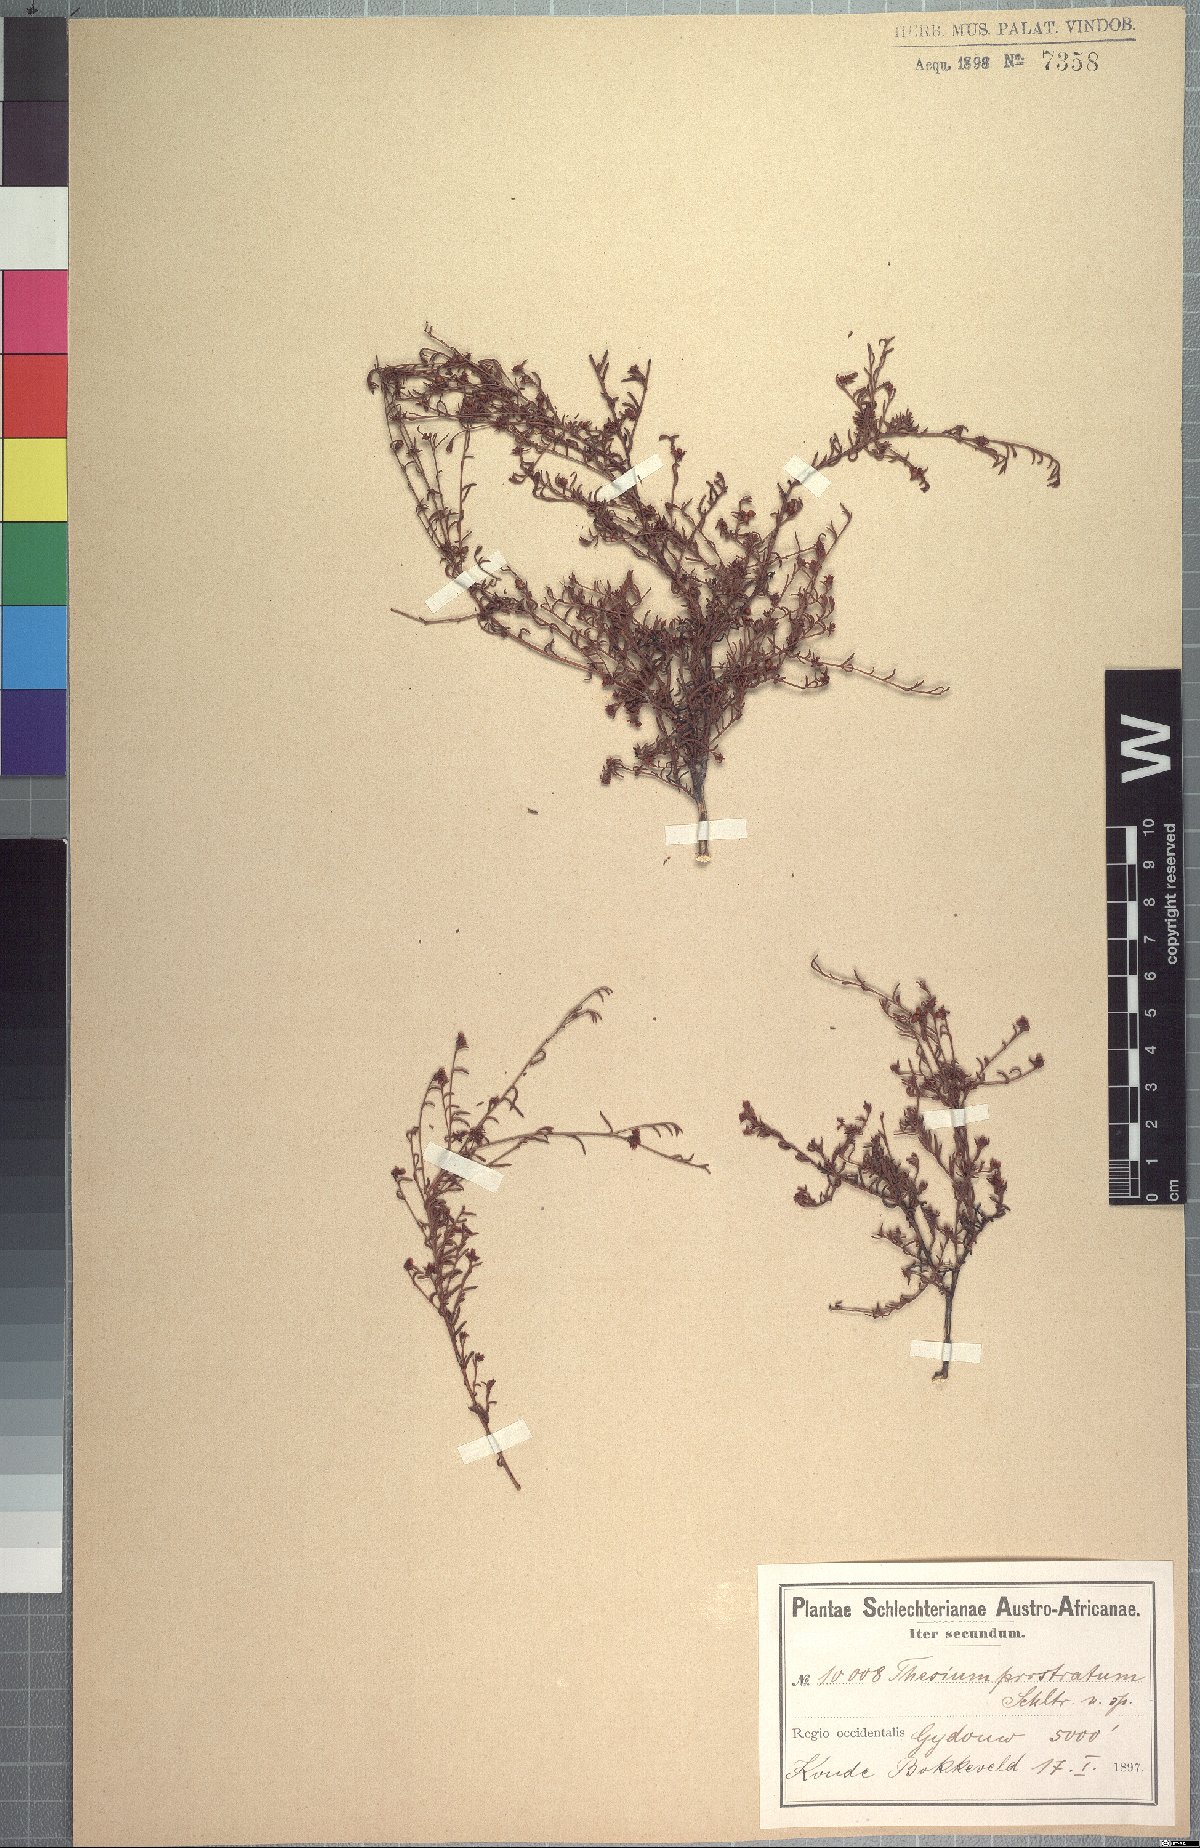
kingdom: Plantae
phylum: Tracheophyta
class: Magnoliopsida
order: Santalales
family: Thesiaceae
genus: Thesium
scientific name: Thesium prostratum
